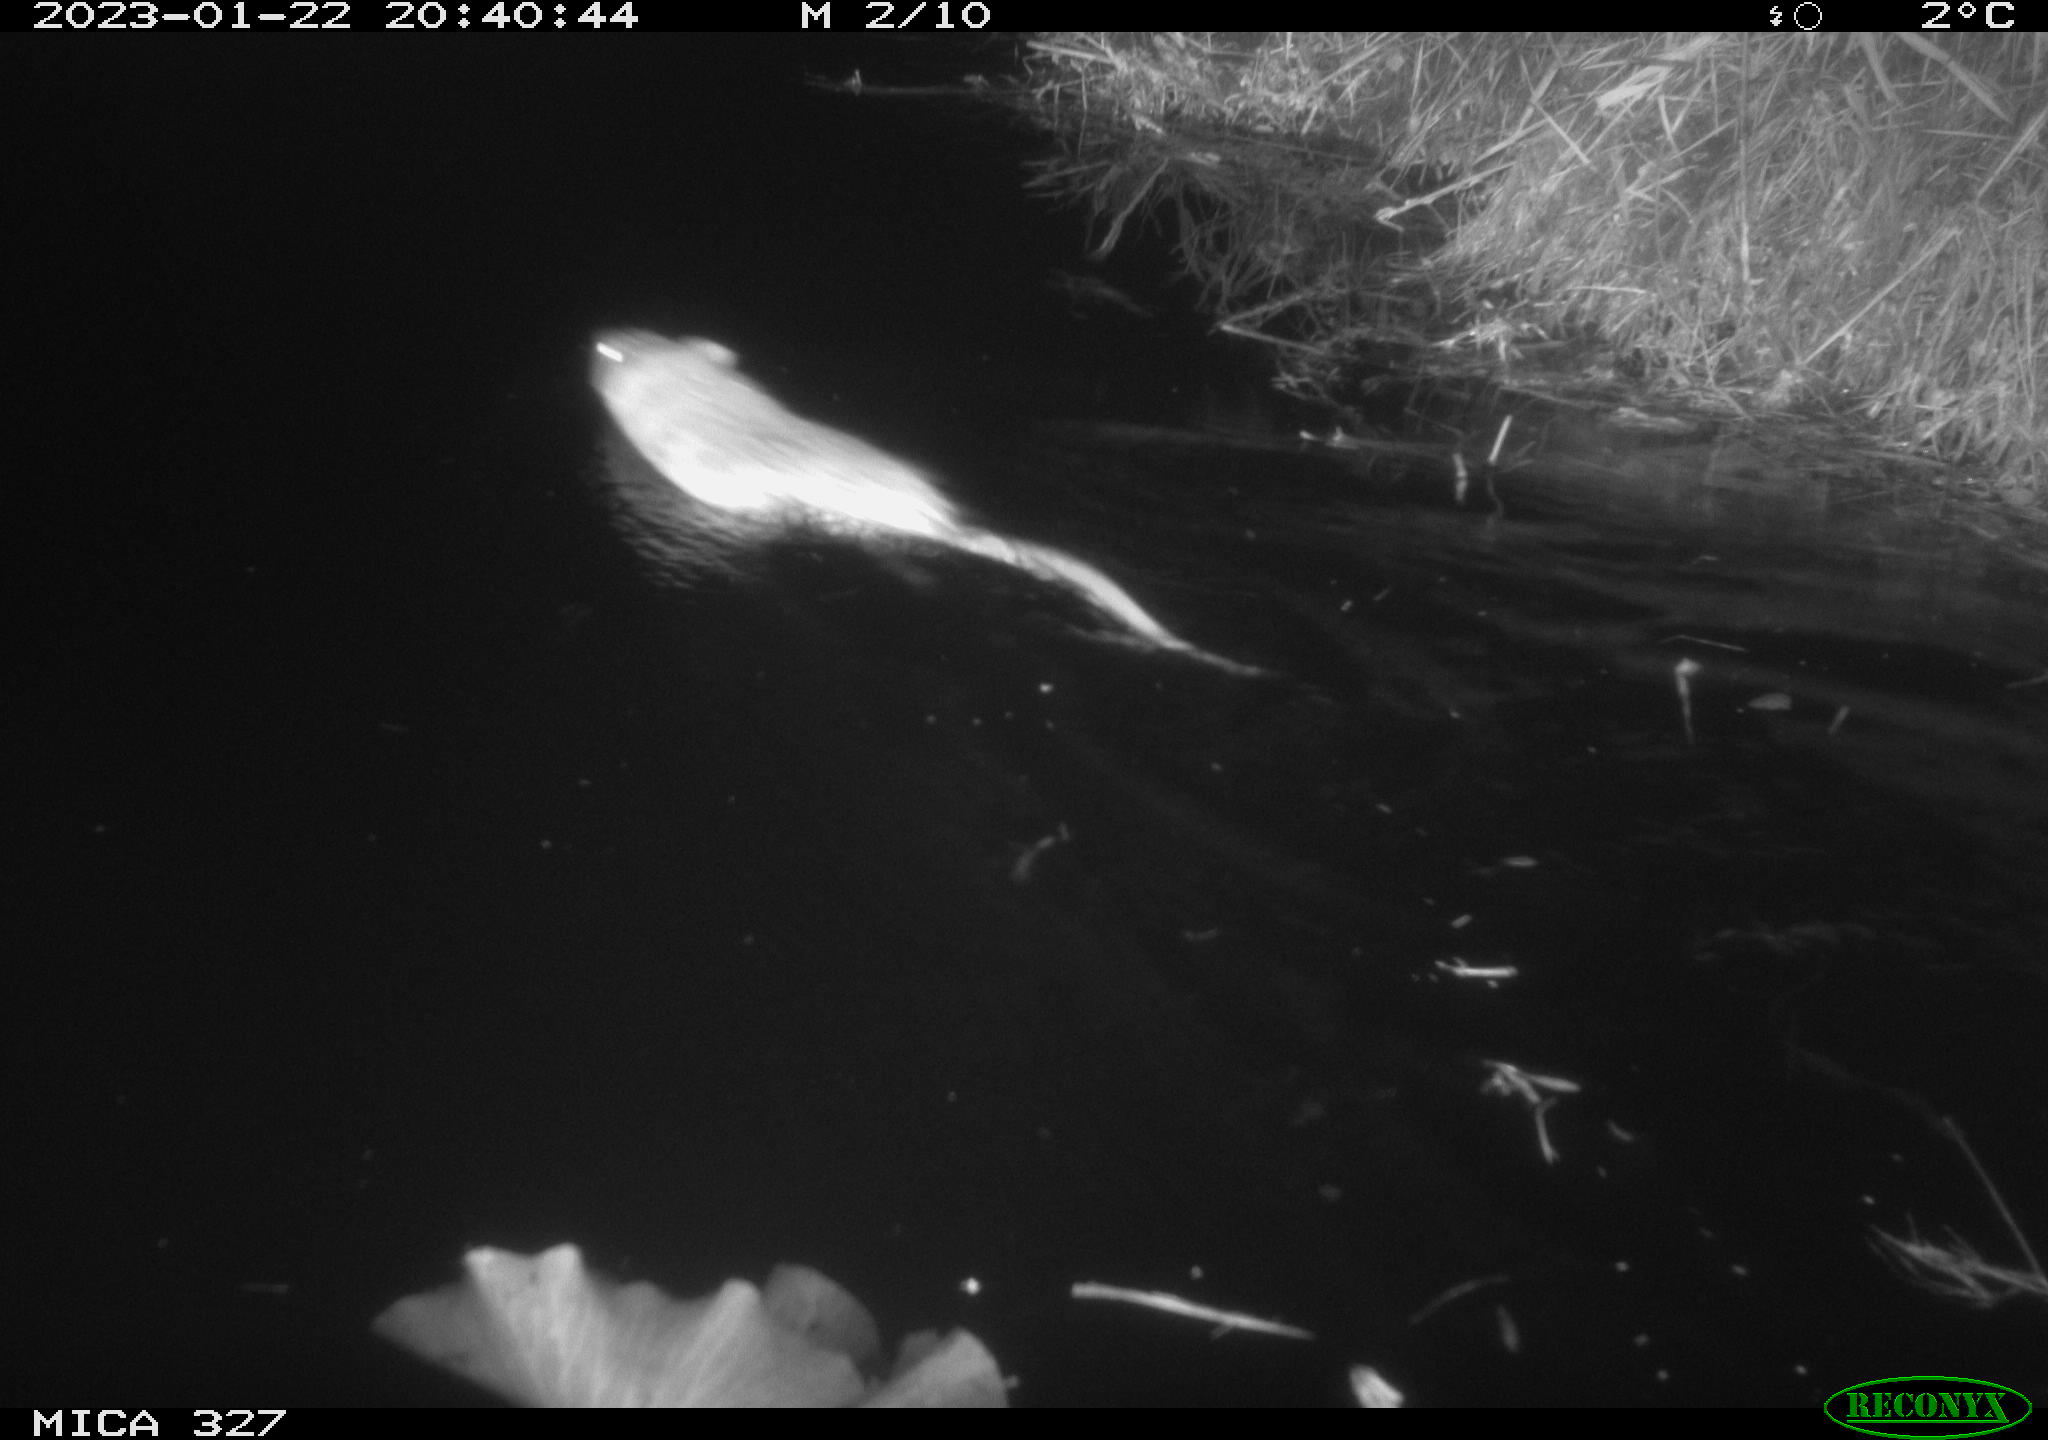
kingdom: Animalia
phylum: Chordata
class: Mammalia
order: Rodentia
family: Cricetidae
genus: Ondatra
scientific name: Ondatra zibethicus
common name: Muskrat
